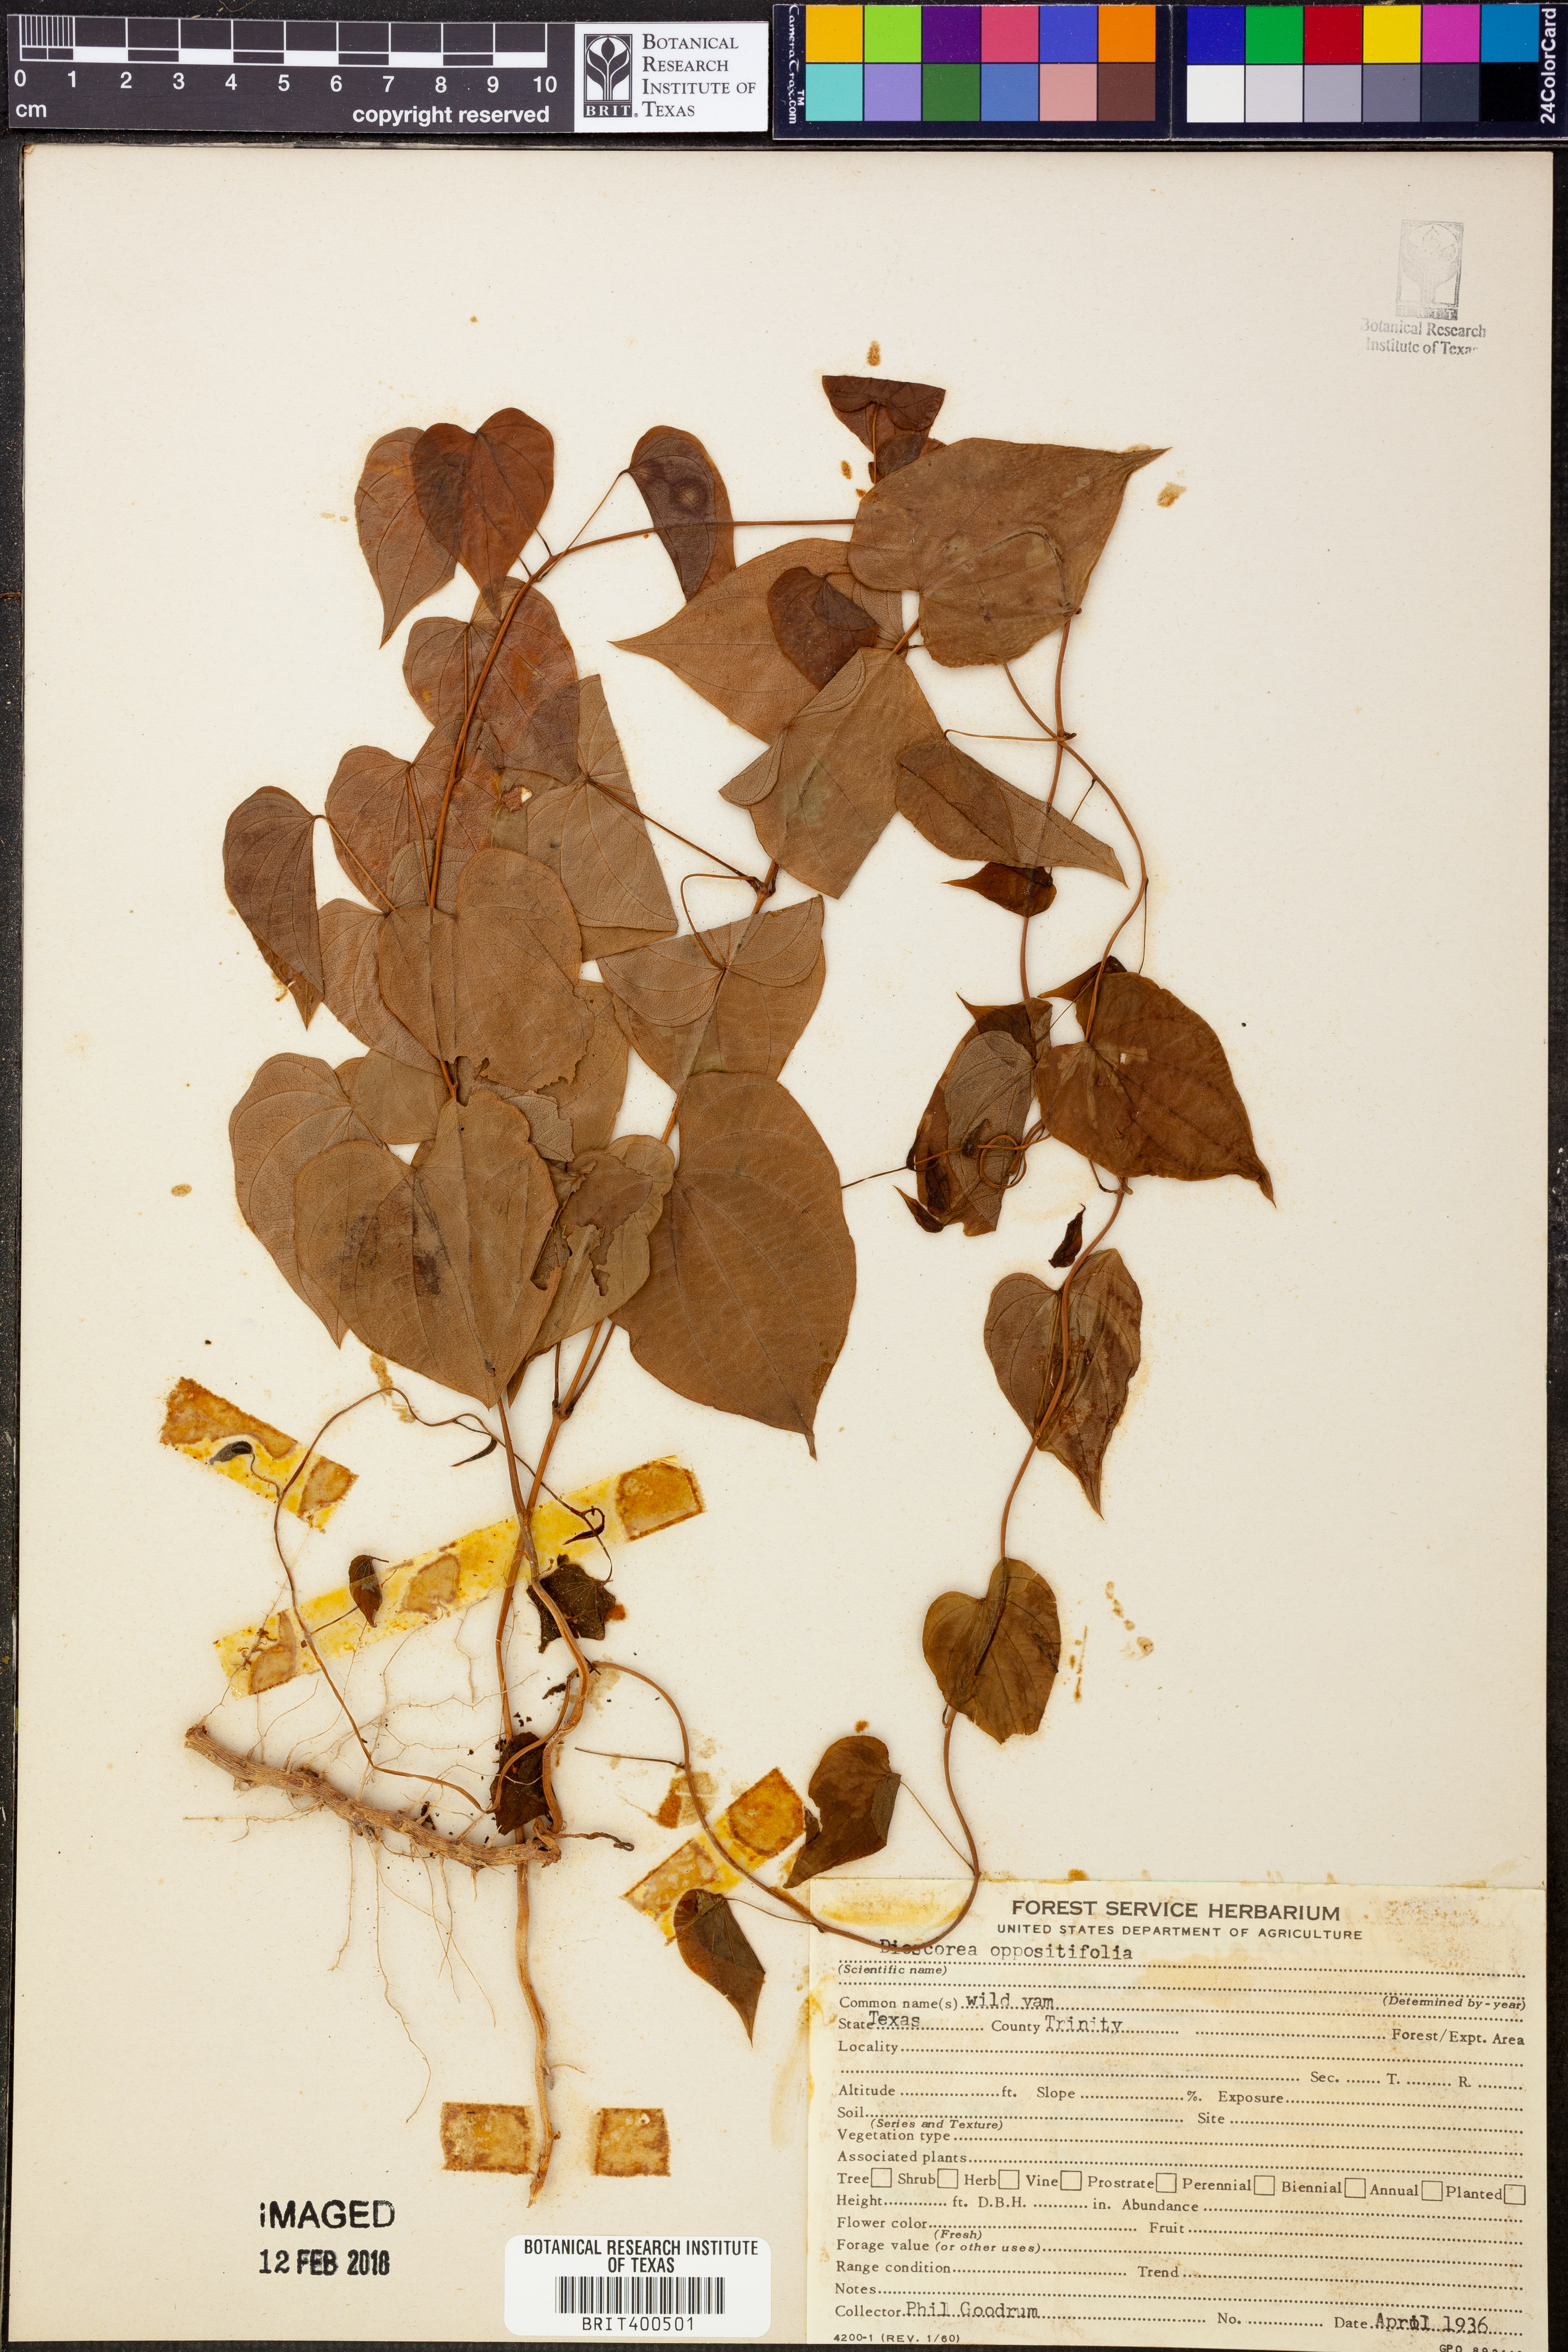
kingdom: Plantae
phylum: Tracheophyta
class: Liliopsida
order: Dioscoreales
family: Dioscoreaceae
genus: Dioscorea
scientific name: Dioscorea oppositifolia
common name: Chinese yam
